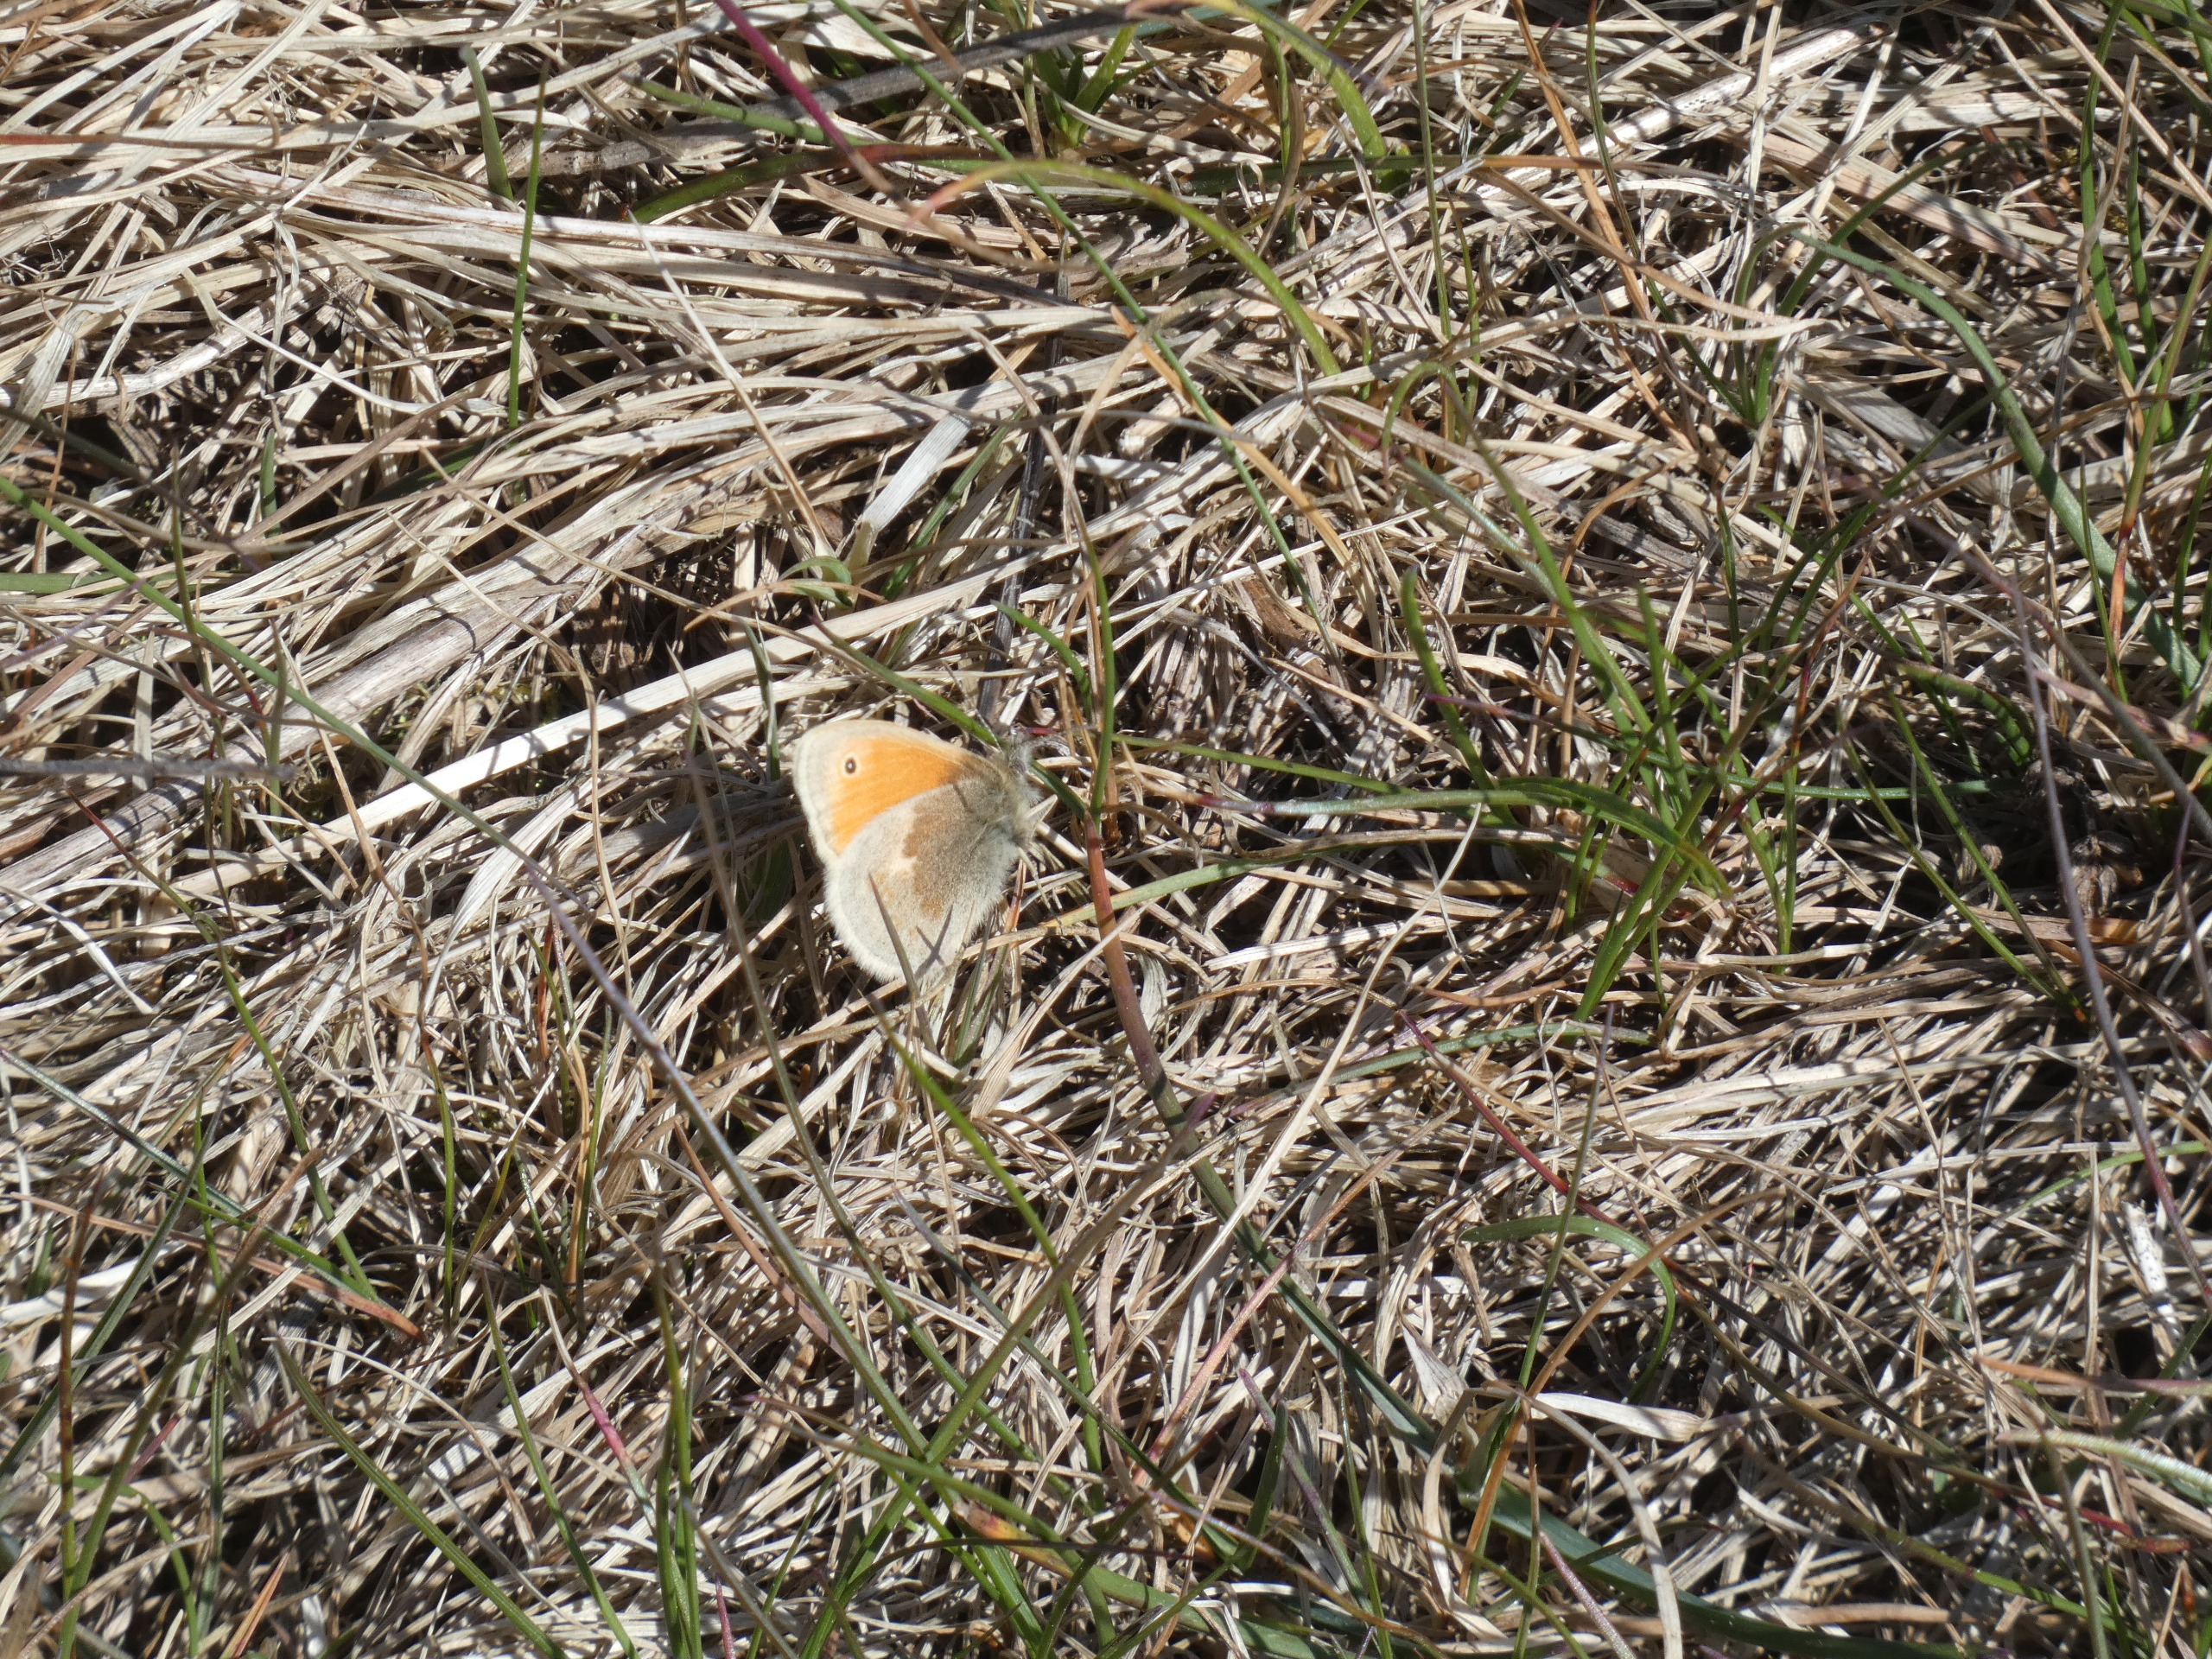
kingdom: Animalia
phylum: Arthropoda
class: Insecta
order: Lepidoptera
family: Nymphalidae
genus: Coenonympha
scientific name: Coenonympha pamphilus
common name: Okkergul randøje
